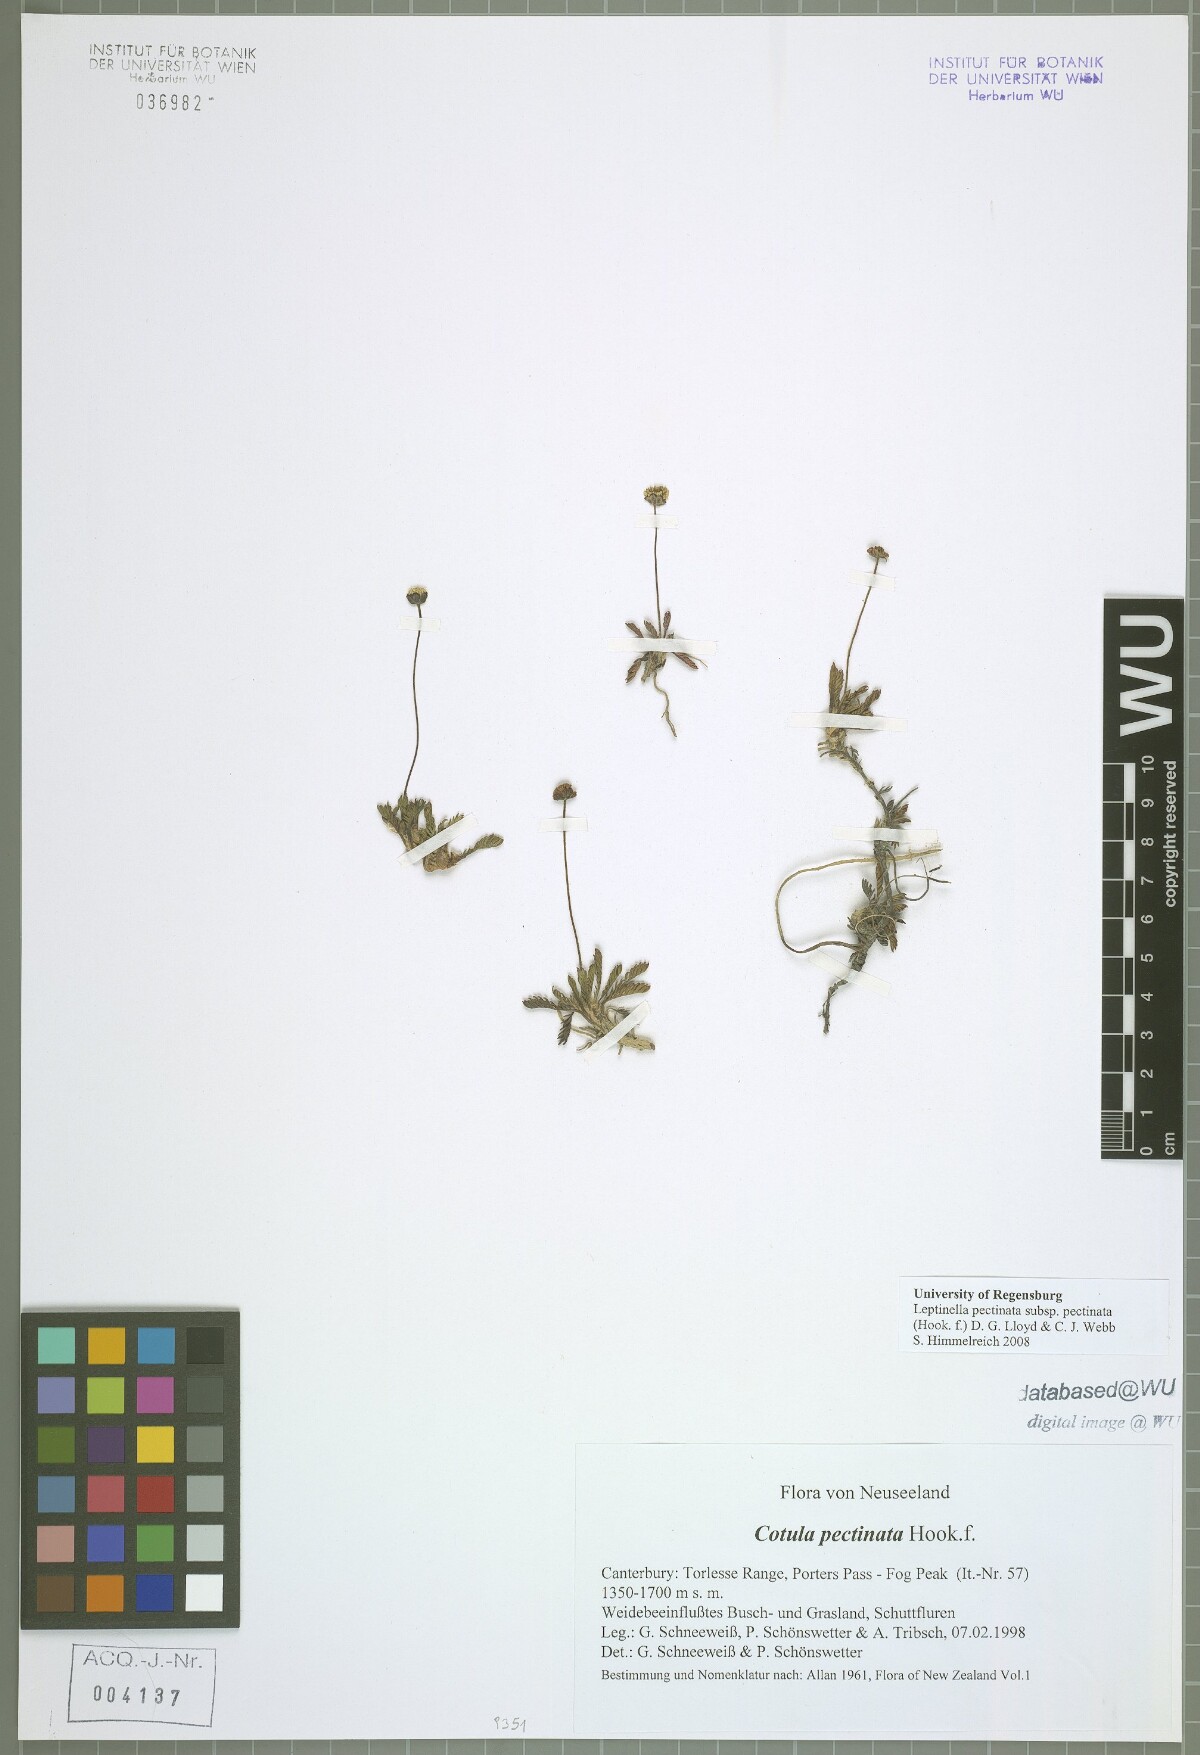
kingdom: Plantae
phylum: Tracheophyta
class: Magnoliopsida
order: Asterales
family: Asteraceae
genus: Leptinella
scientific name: Leptinella pectinata
